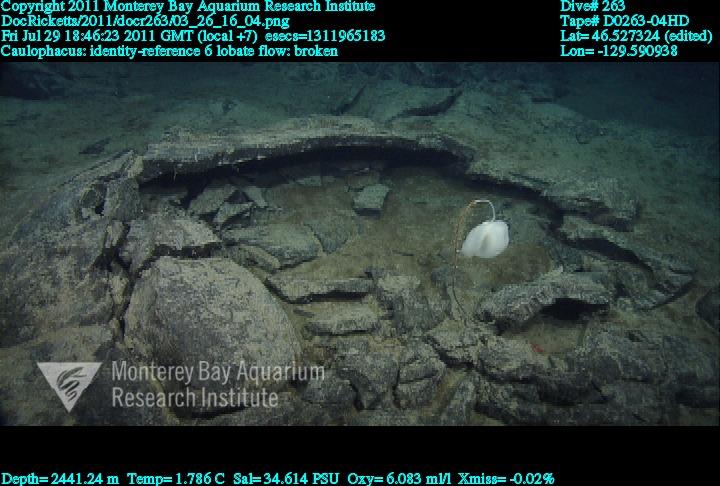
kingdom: Animalia
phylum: Porifera
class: Hexactinellida
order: Lyssacinosida
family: Rossellidae
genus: Caulophacus
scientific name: Caulophacus
